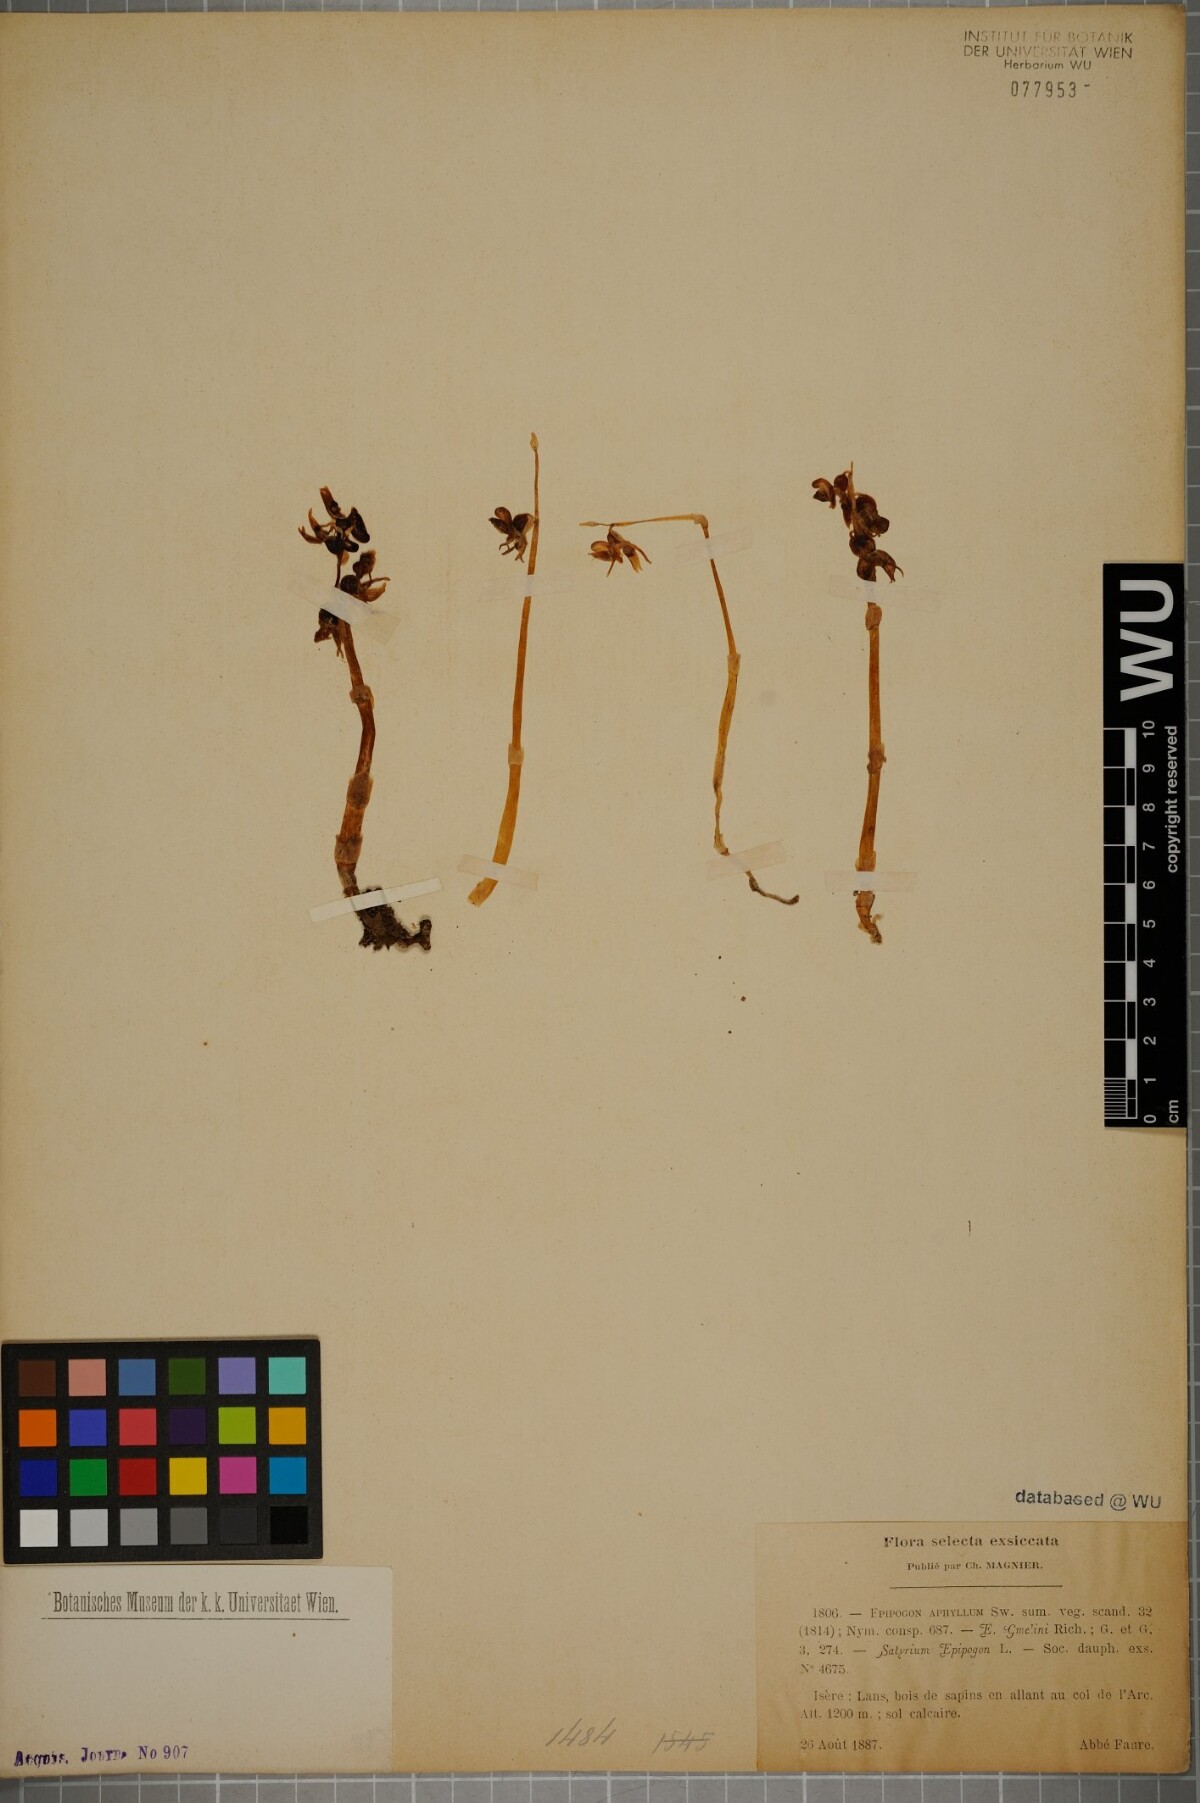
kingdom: Plantae
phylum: Tracheophyta
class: Liliopsida
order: Asparagales
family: Orchidaceae
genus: Epipogium
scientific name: Epipogium aphyllum
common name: Ghost orchid
